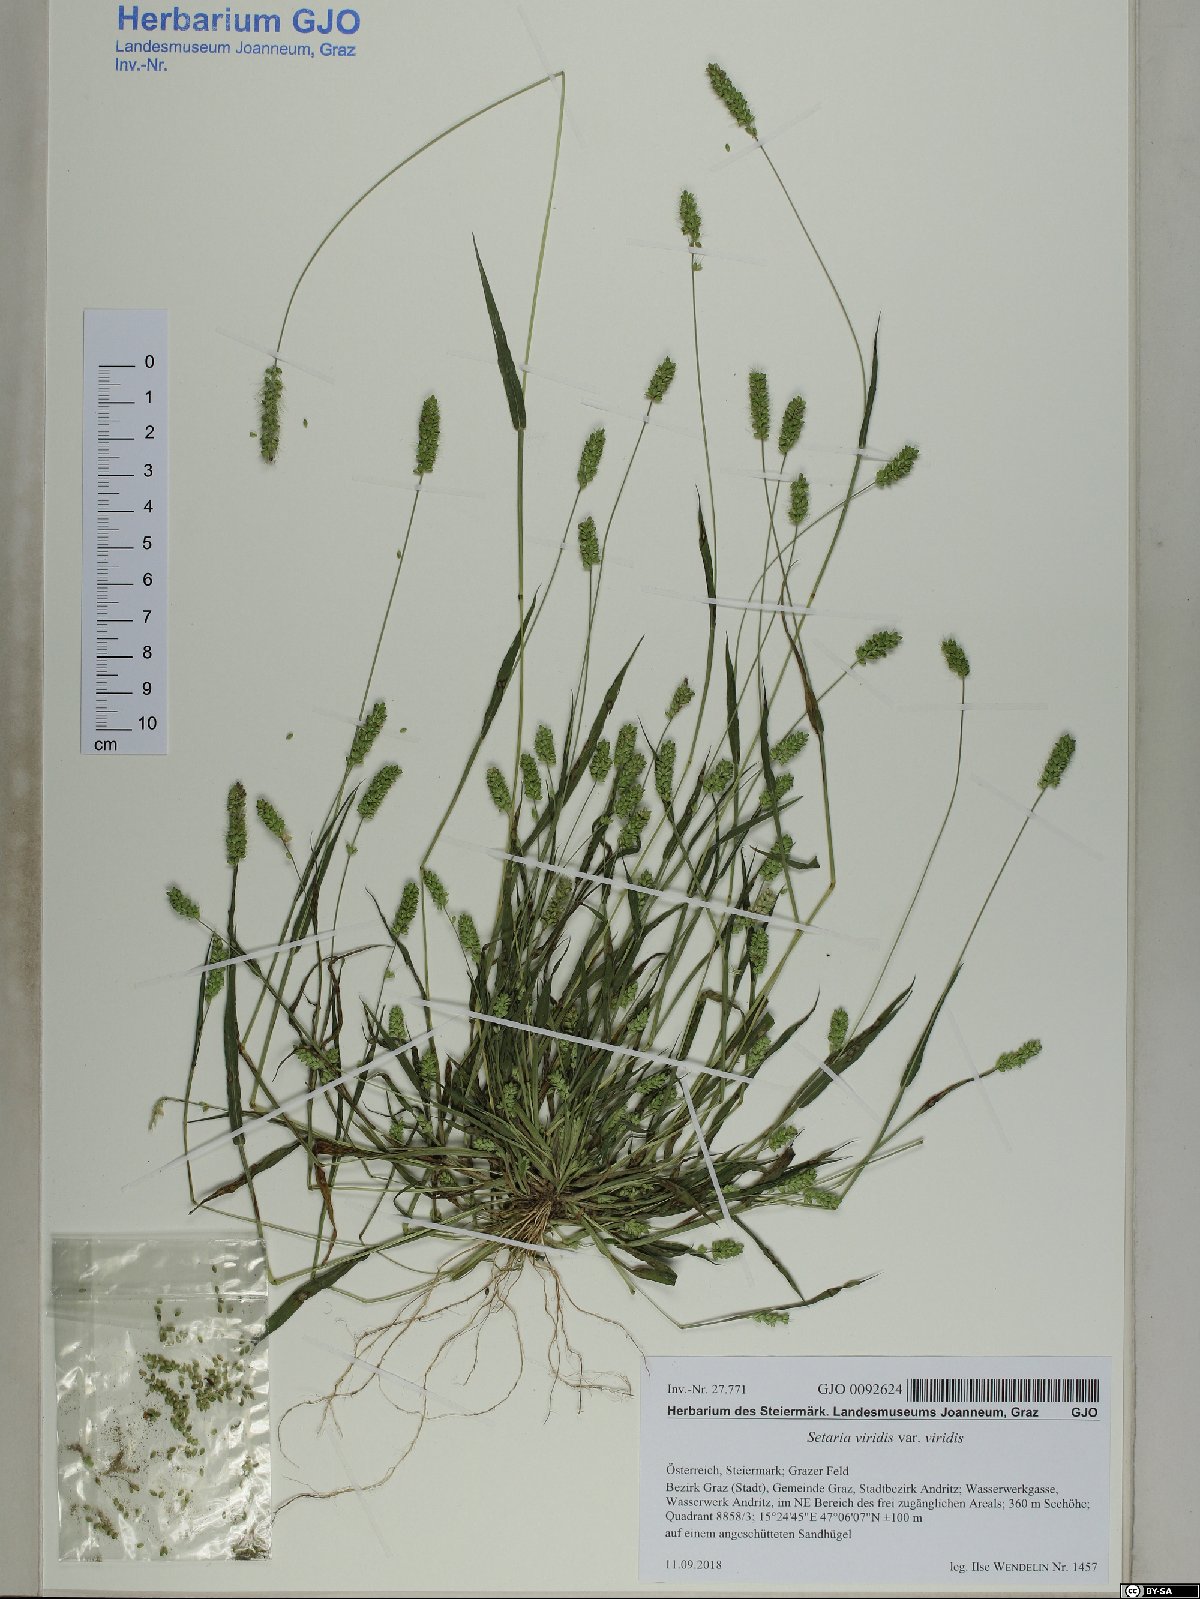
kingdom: Plantae
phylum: Tracheophyta
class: Liliopsida
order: Poales
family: Poaceae
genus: Setaria
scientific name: Setaria viridis
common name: Green bristlegrass
